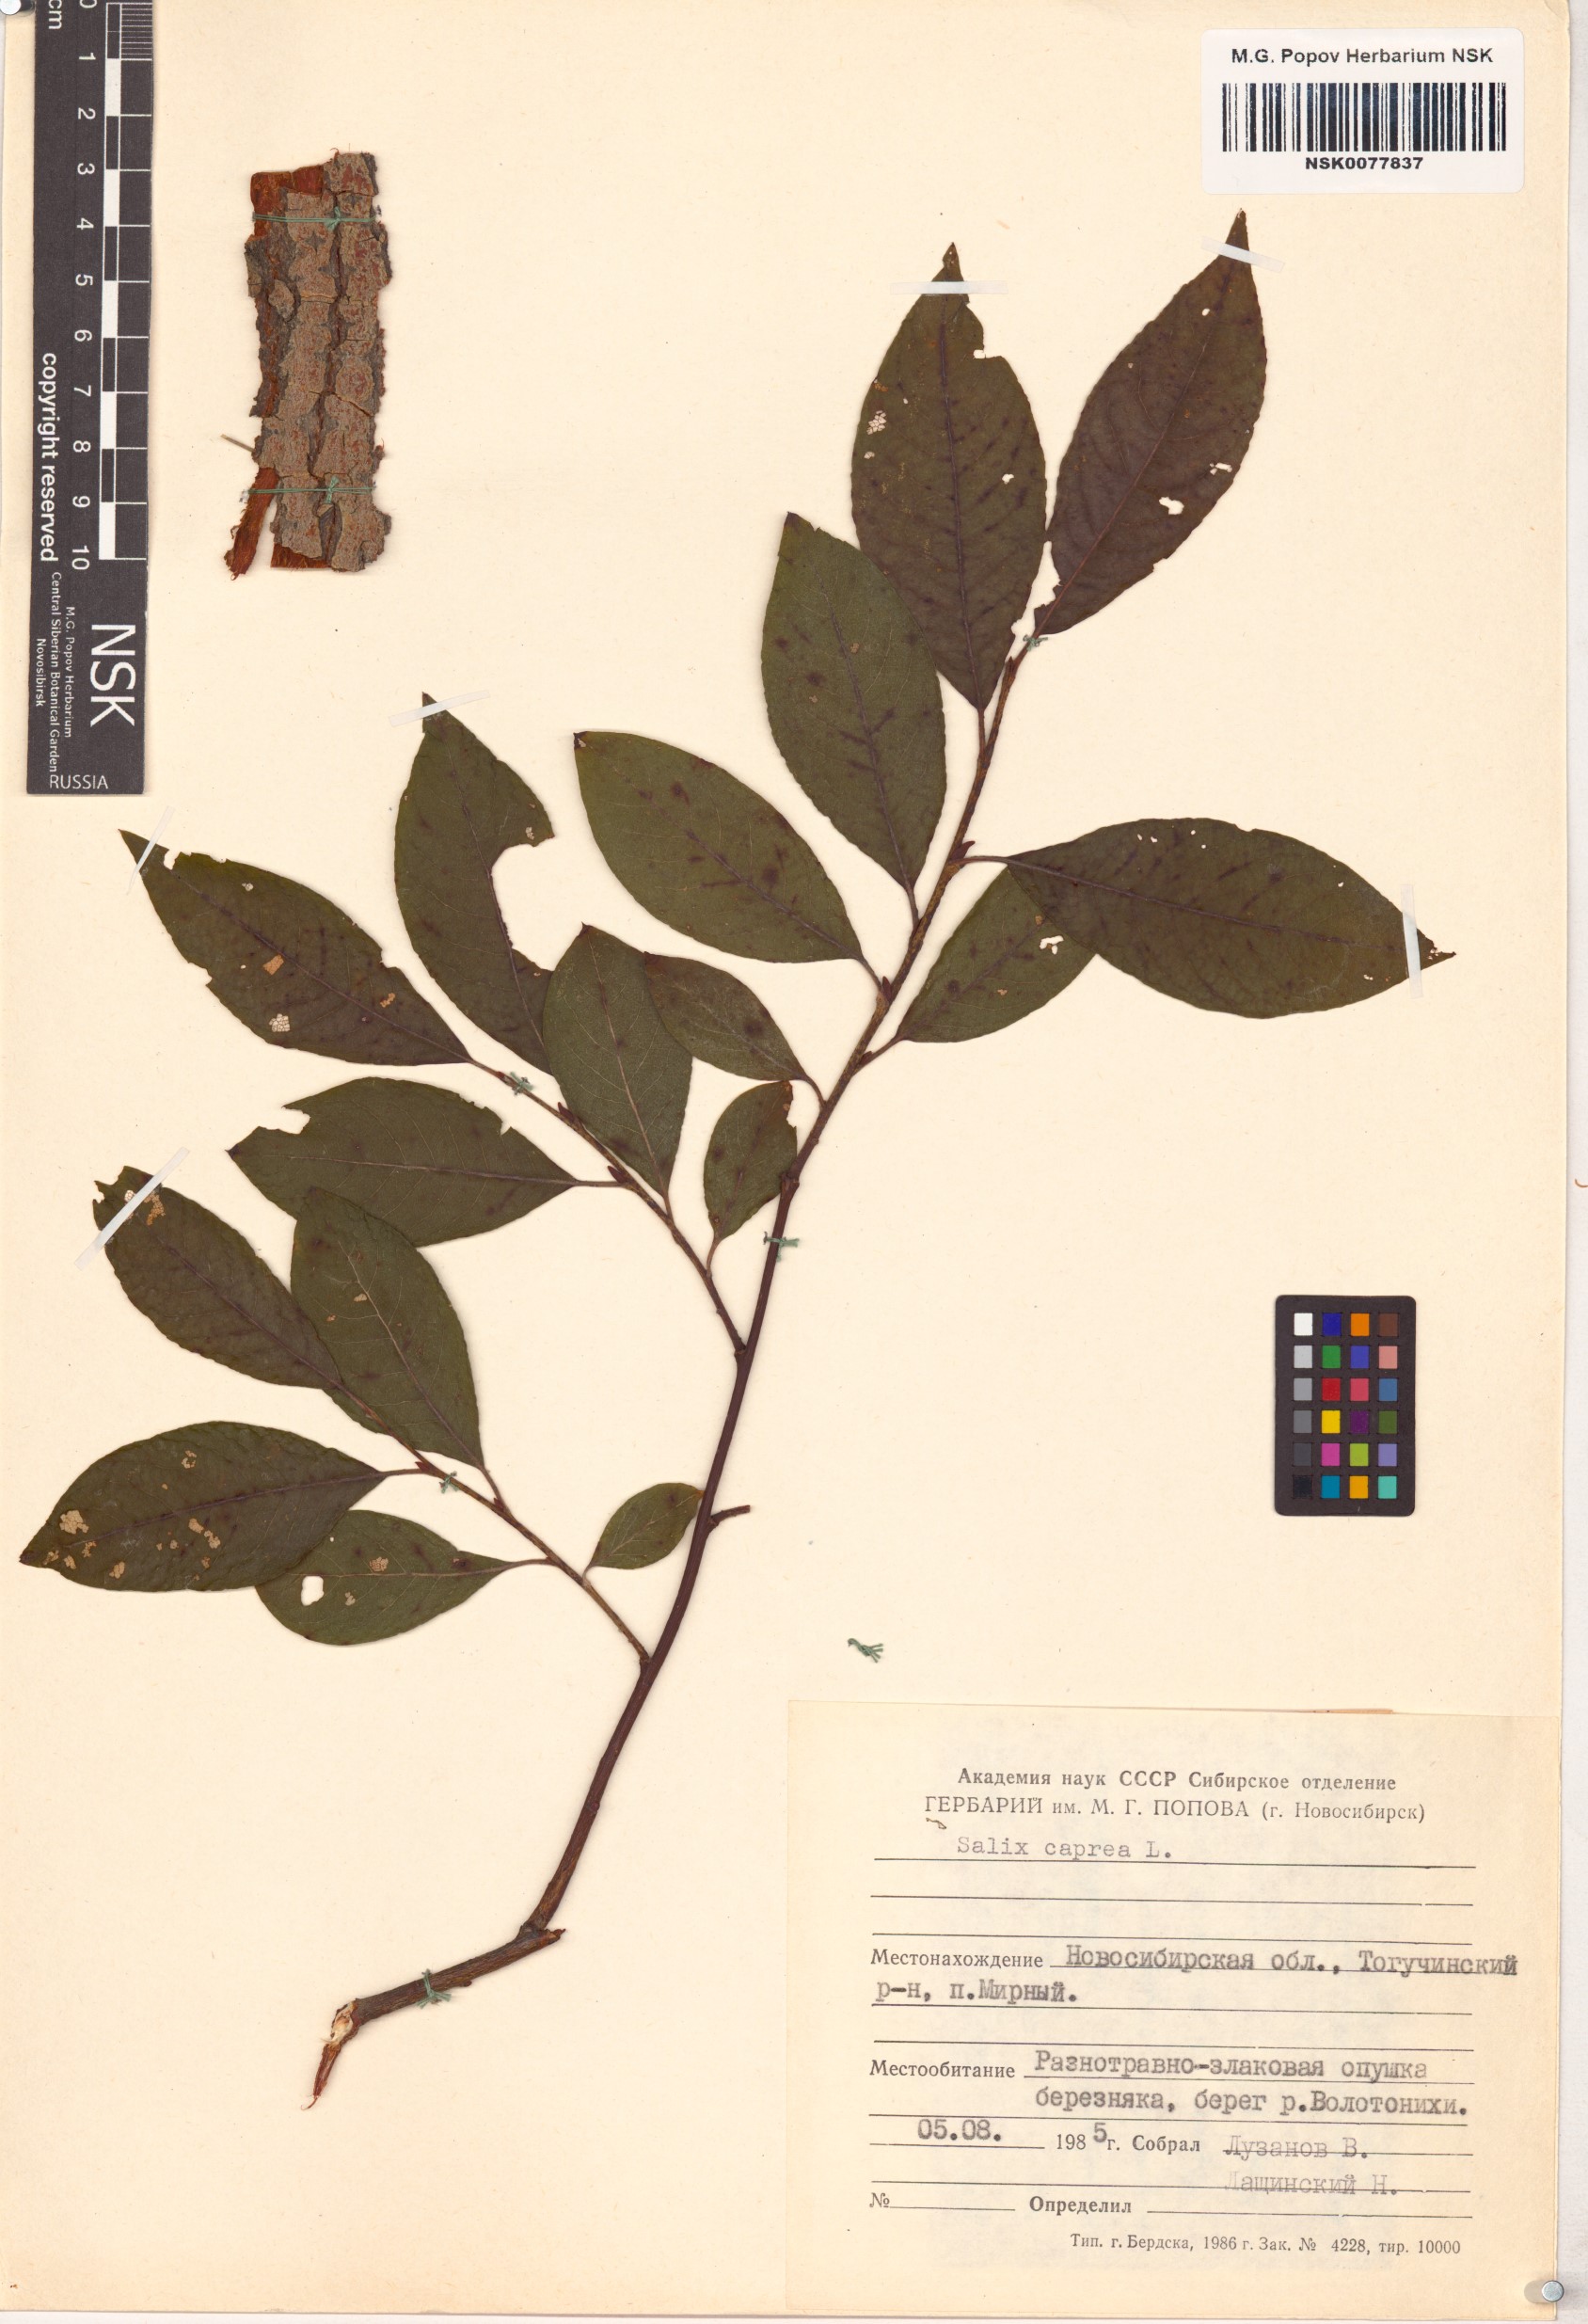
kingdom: Plantae
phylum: Tracheophyta
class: Magnoliopsida
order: Malpighiales
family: Salicaceae
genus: Salix
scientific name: Salix caprea
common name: Goat willow
